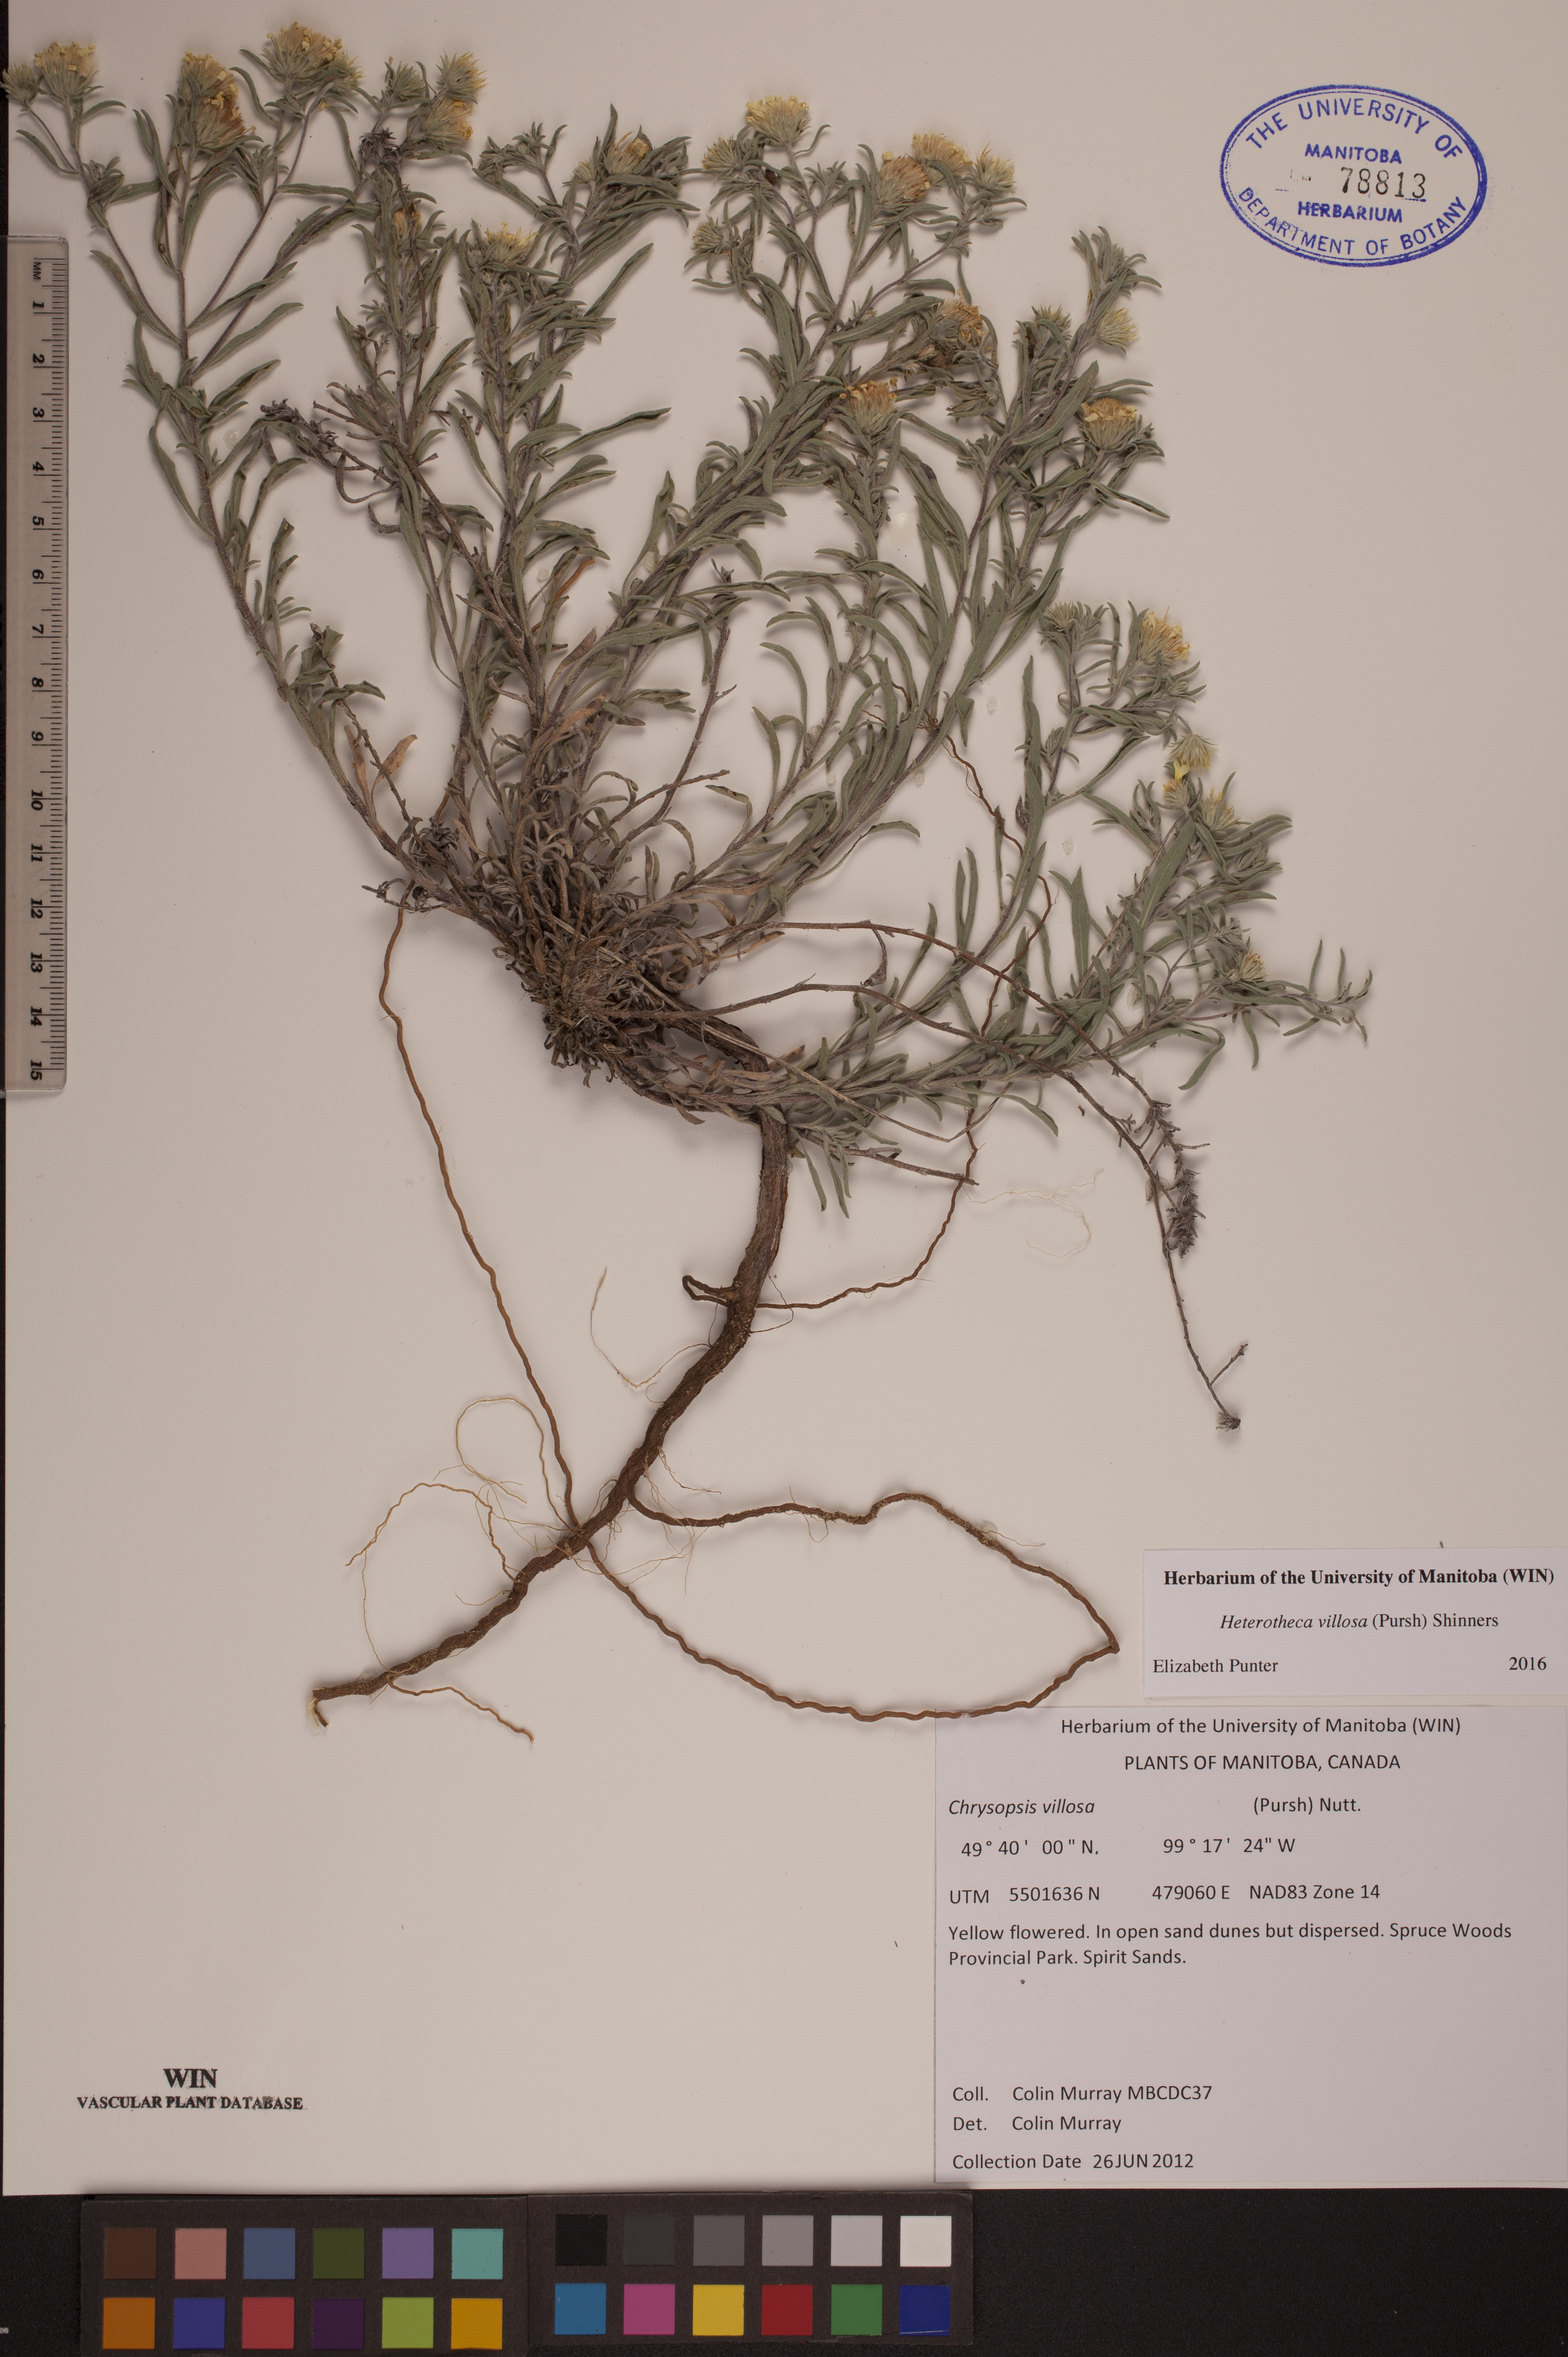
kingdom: Plantae
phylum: Tracheophyta
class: Magnoliopsida
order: Asterales
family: Asteraceae
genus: Heterotheca
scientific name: Heterotheca villosa
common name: Hairy false goldenaster
